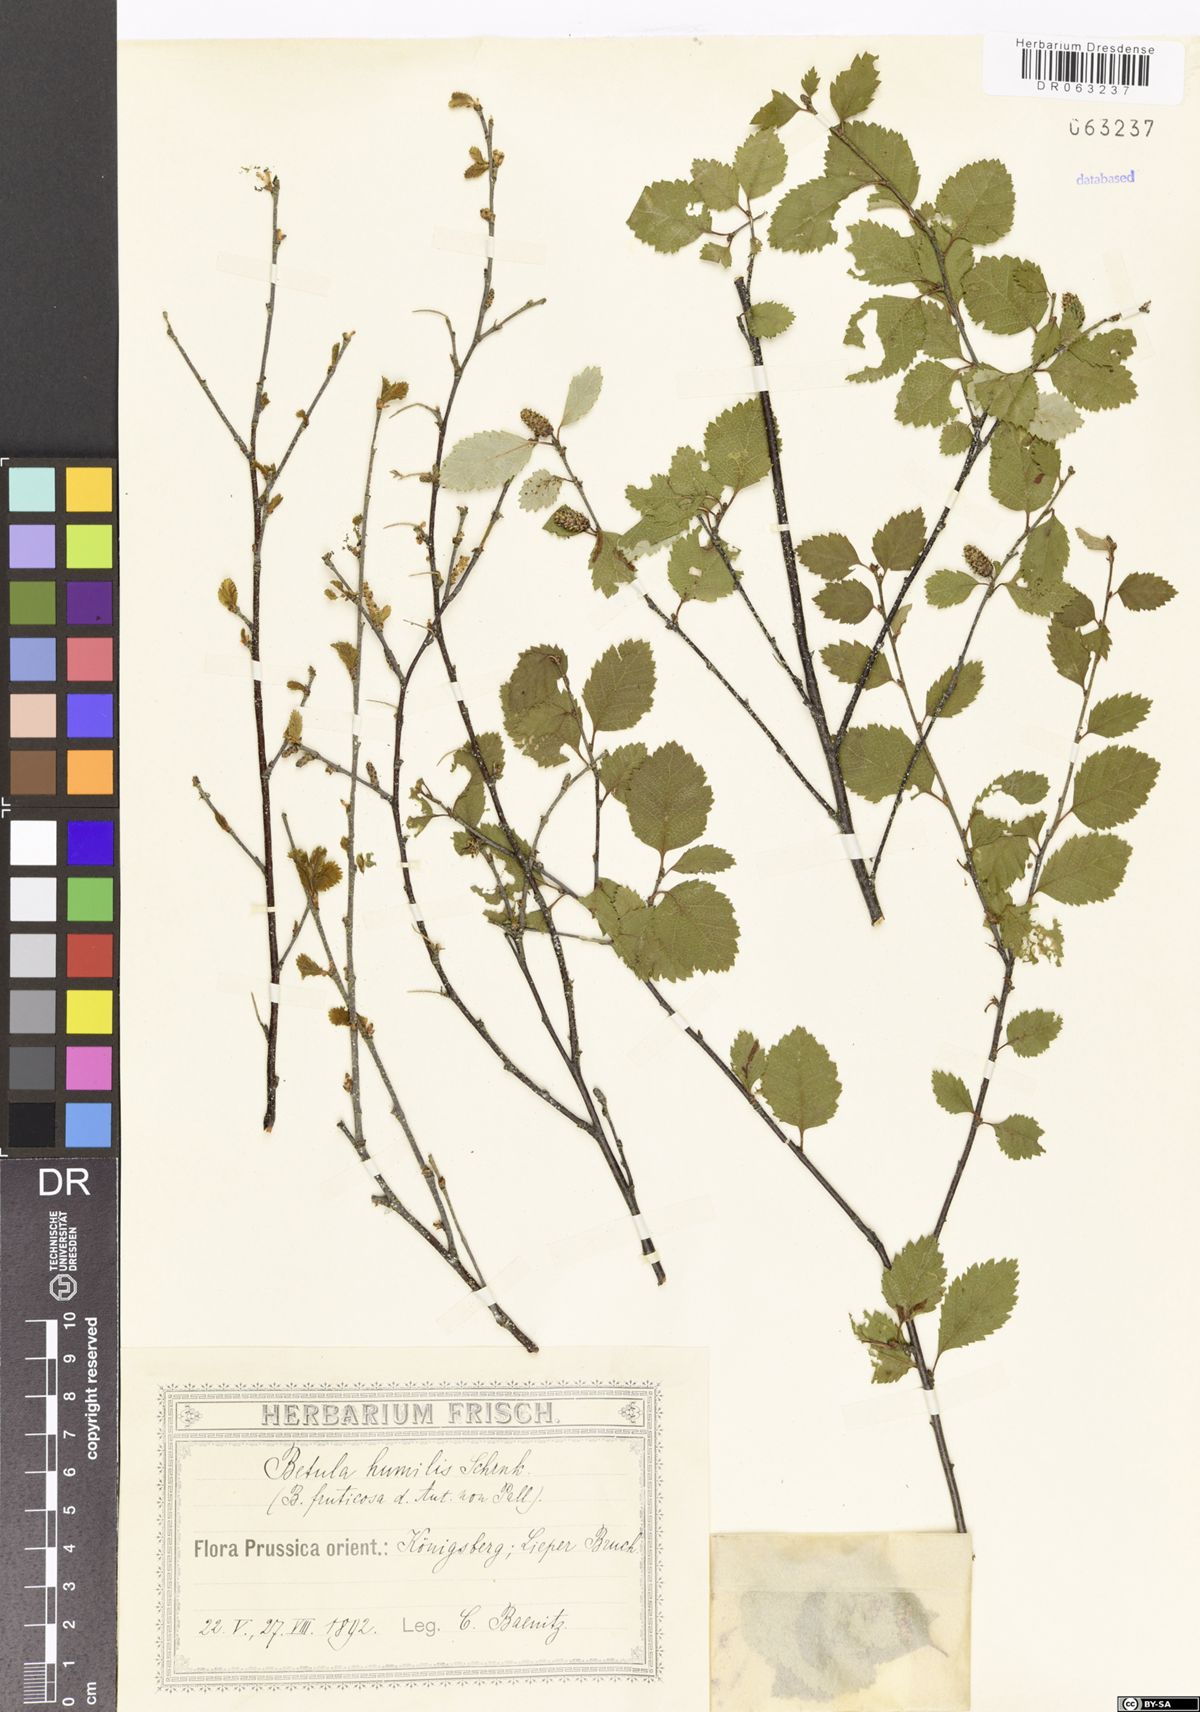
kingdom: Plantae
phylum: Tracheophyta
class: Magnoliopsida
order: Fagales
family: Betulaceae
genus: Betula
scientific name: Betula humilis
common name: Shrubby birch
